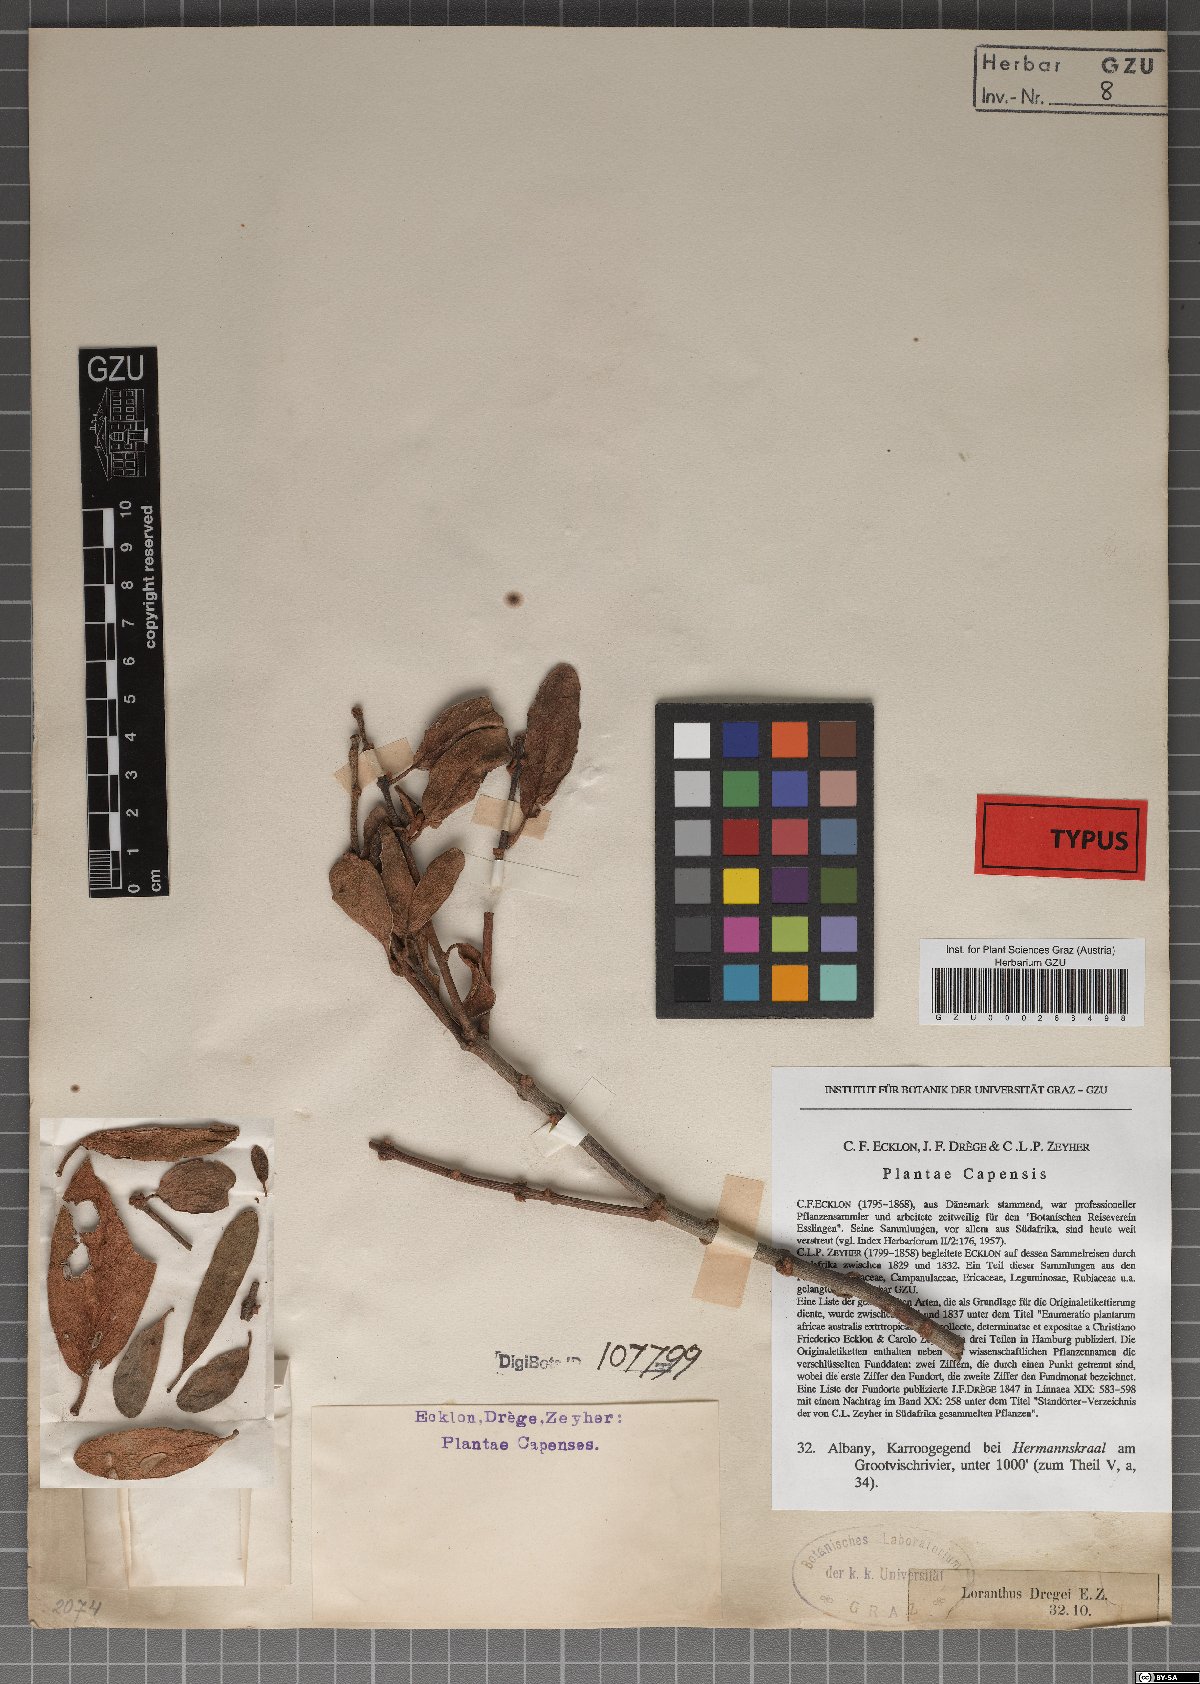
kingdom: Plantae
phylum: Tracheophyta
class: Magnoliopsida
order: Santalales
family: Loranthaceae
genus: Erianthemum
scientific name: Erianthemum dregei
